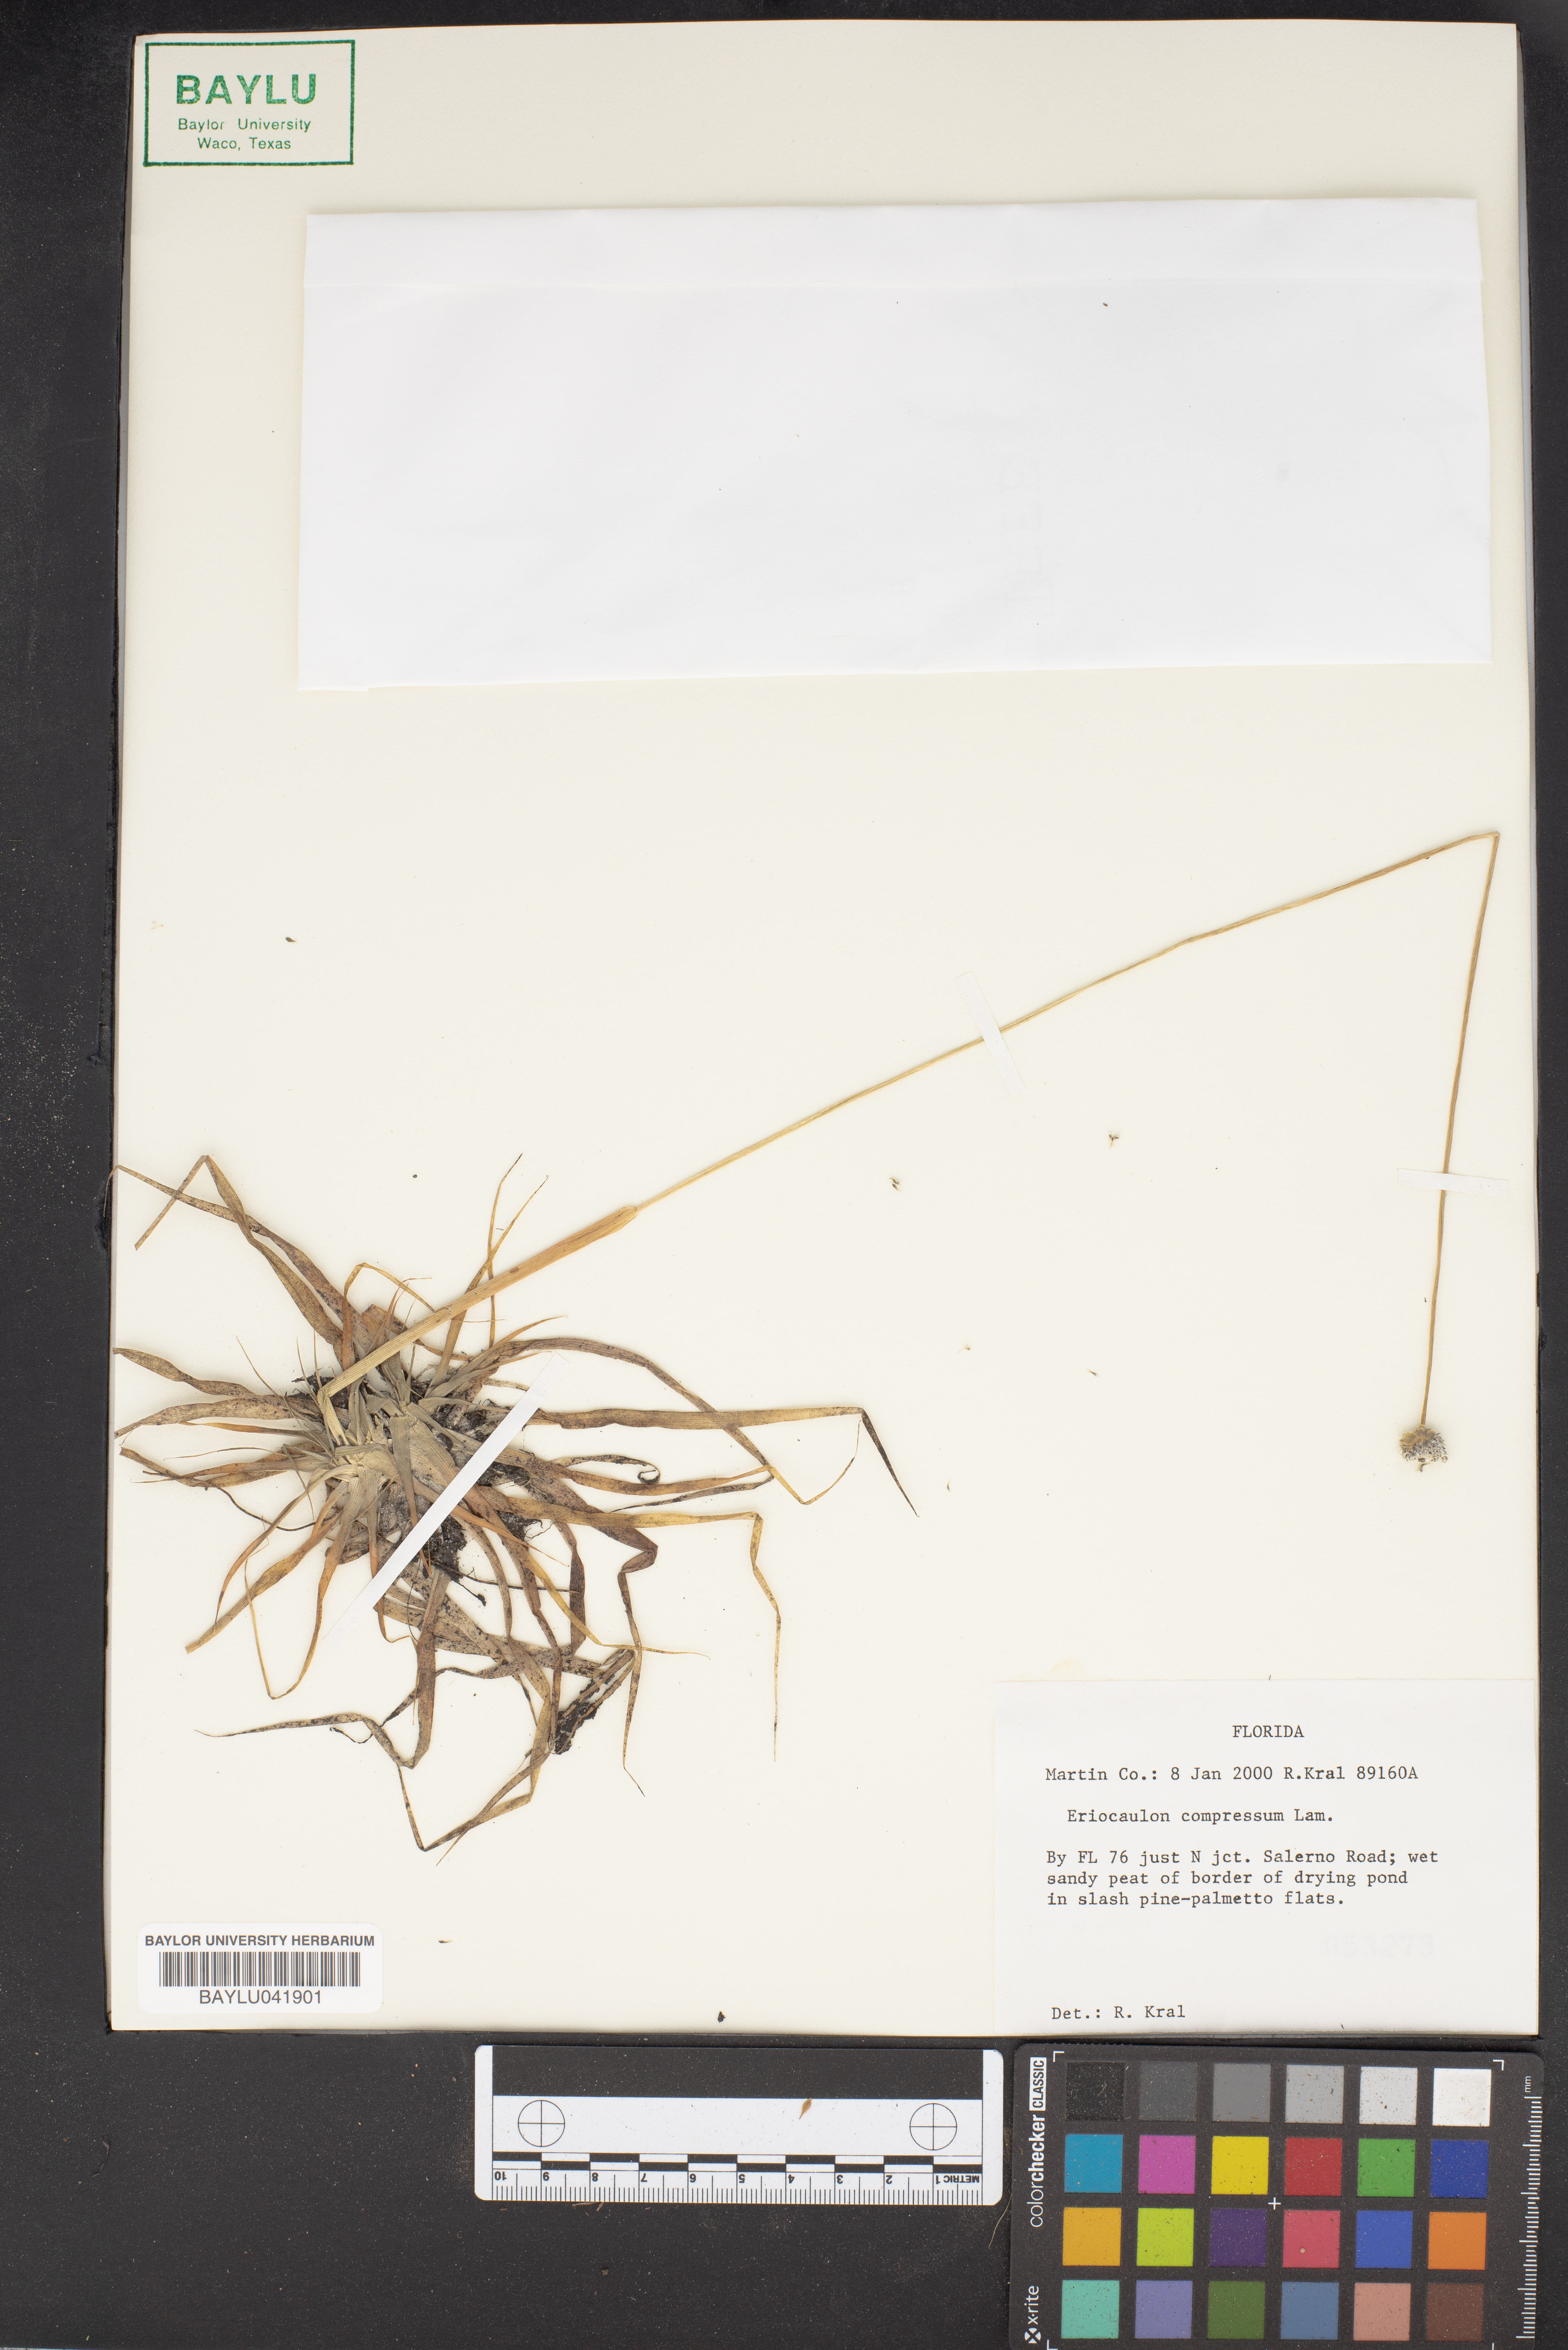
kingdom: Plantae
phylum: Tracheophyta
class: Liliopsida
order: Poales
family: Eriocaulaceae
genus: Eriocaulon
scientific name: Eriocaulon compressum
